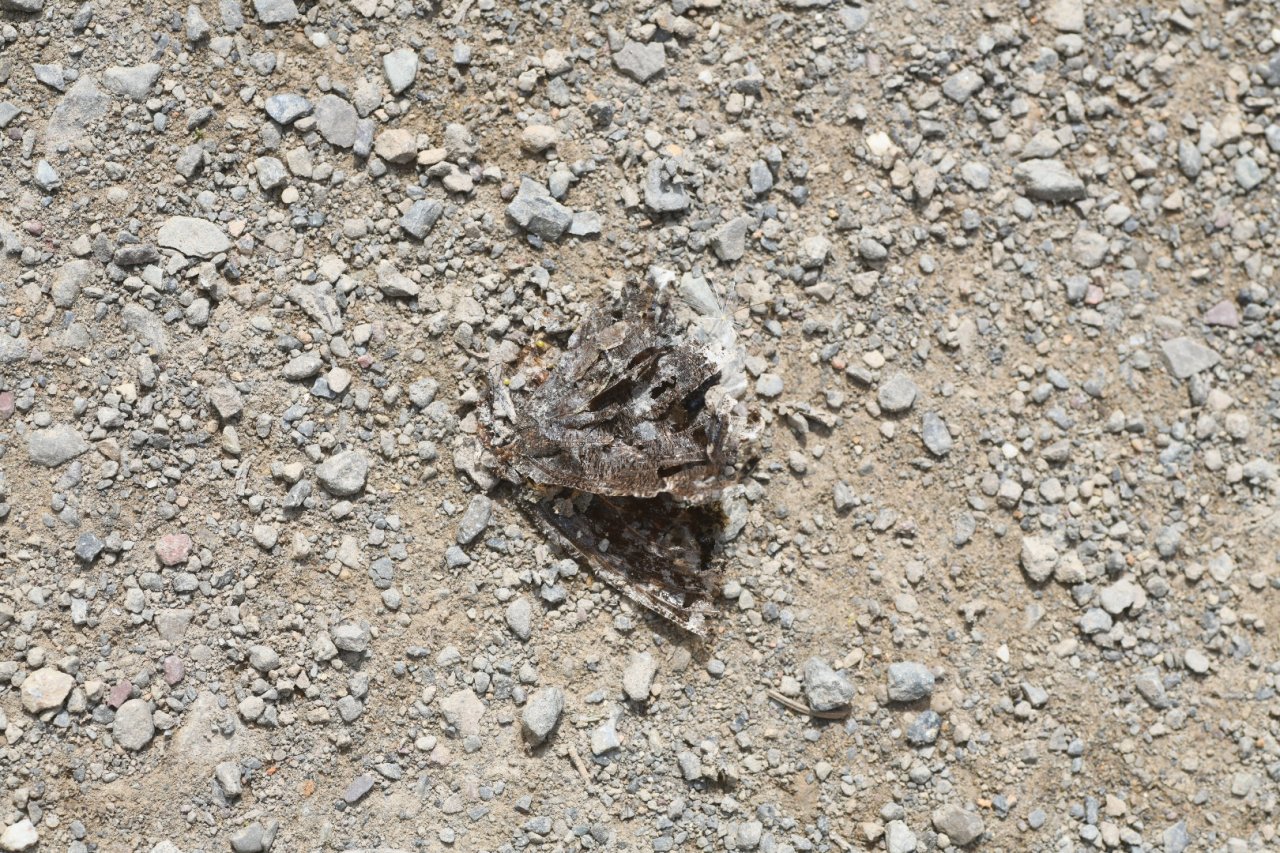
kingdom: Animalia
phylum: Arthropoda
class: Insecta
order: Lepidoptera
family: Nymphalidae
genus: Nymphalis
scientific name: Nymphalis antiopa
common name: Mourning Cloak
